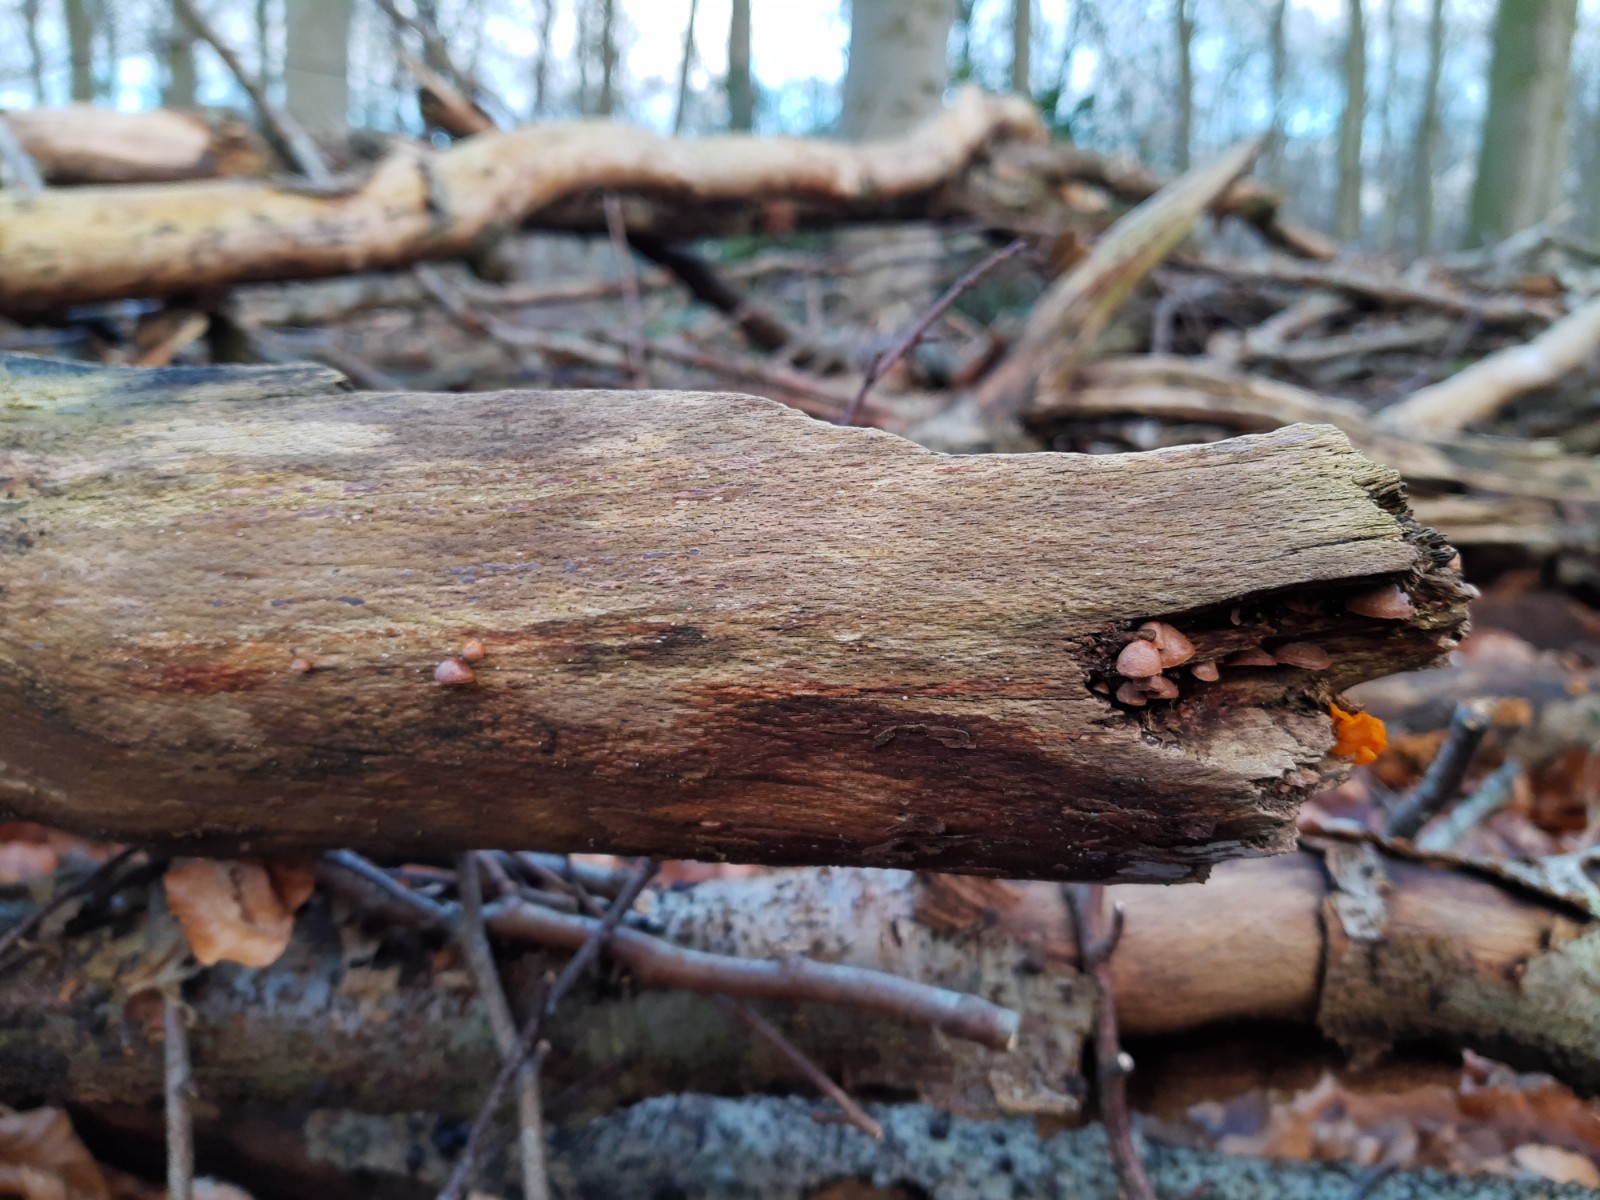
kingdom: Fungi
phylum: Basidiomycota
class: Agaricomycetes
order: Agaricales
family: Strophariaceae
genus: Deconica
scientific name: Deconica horizontalis
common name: ved-stråhat
